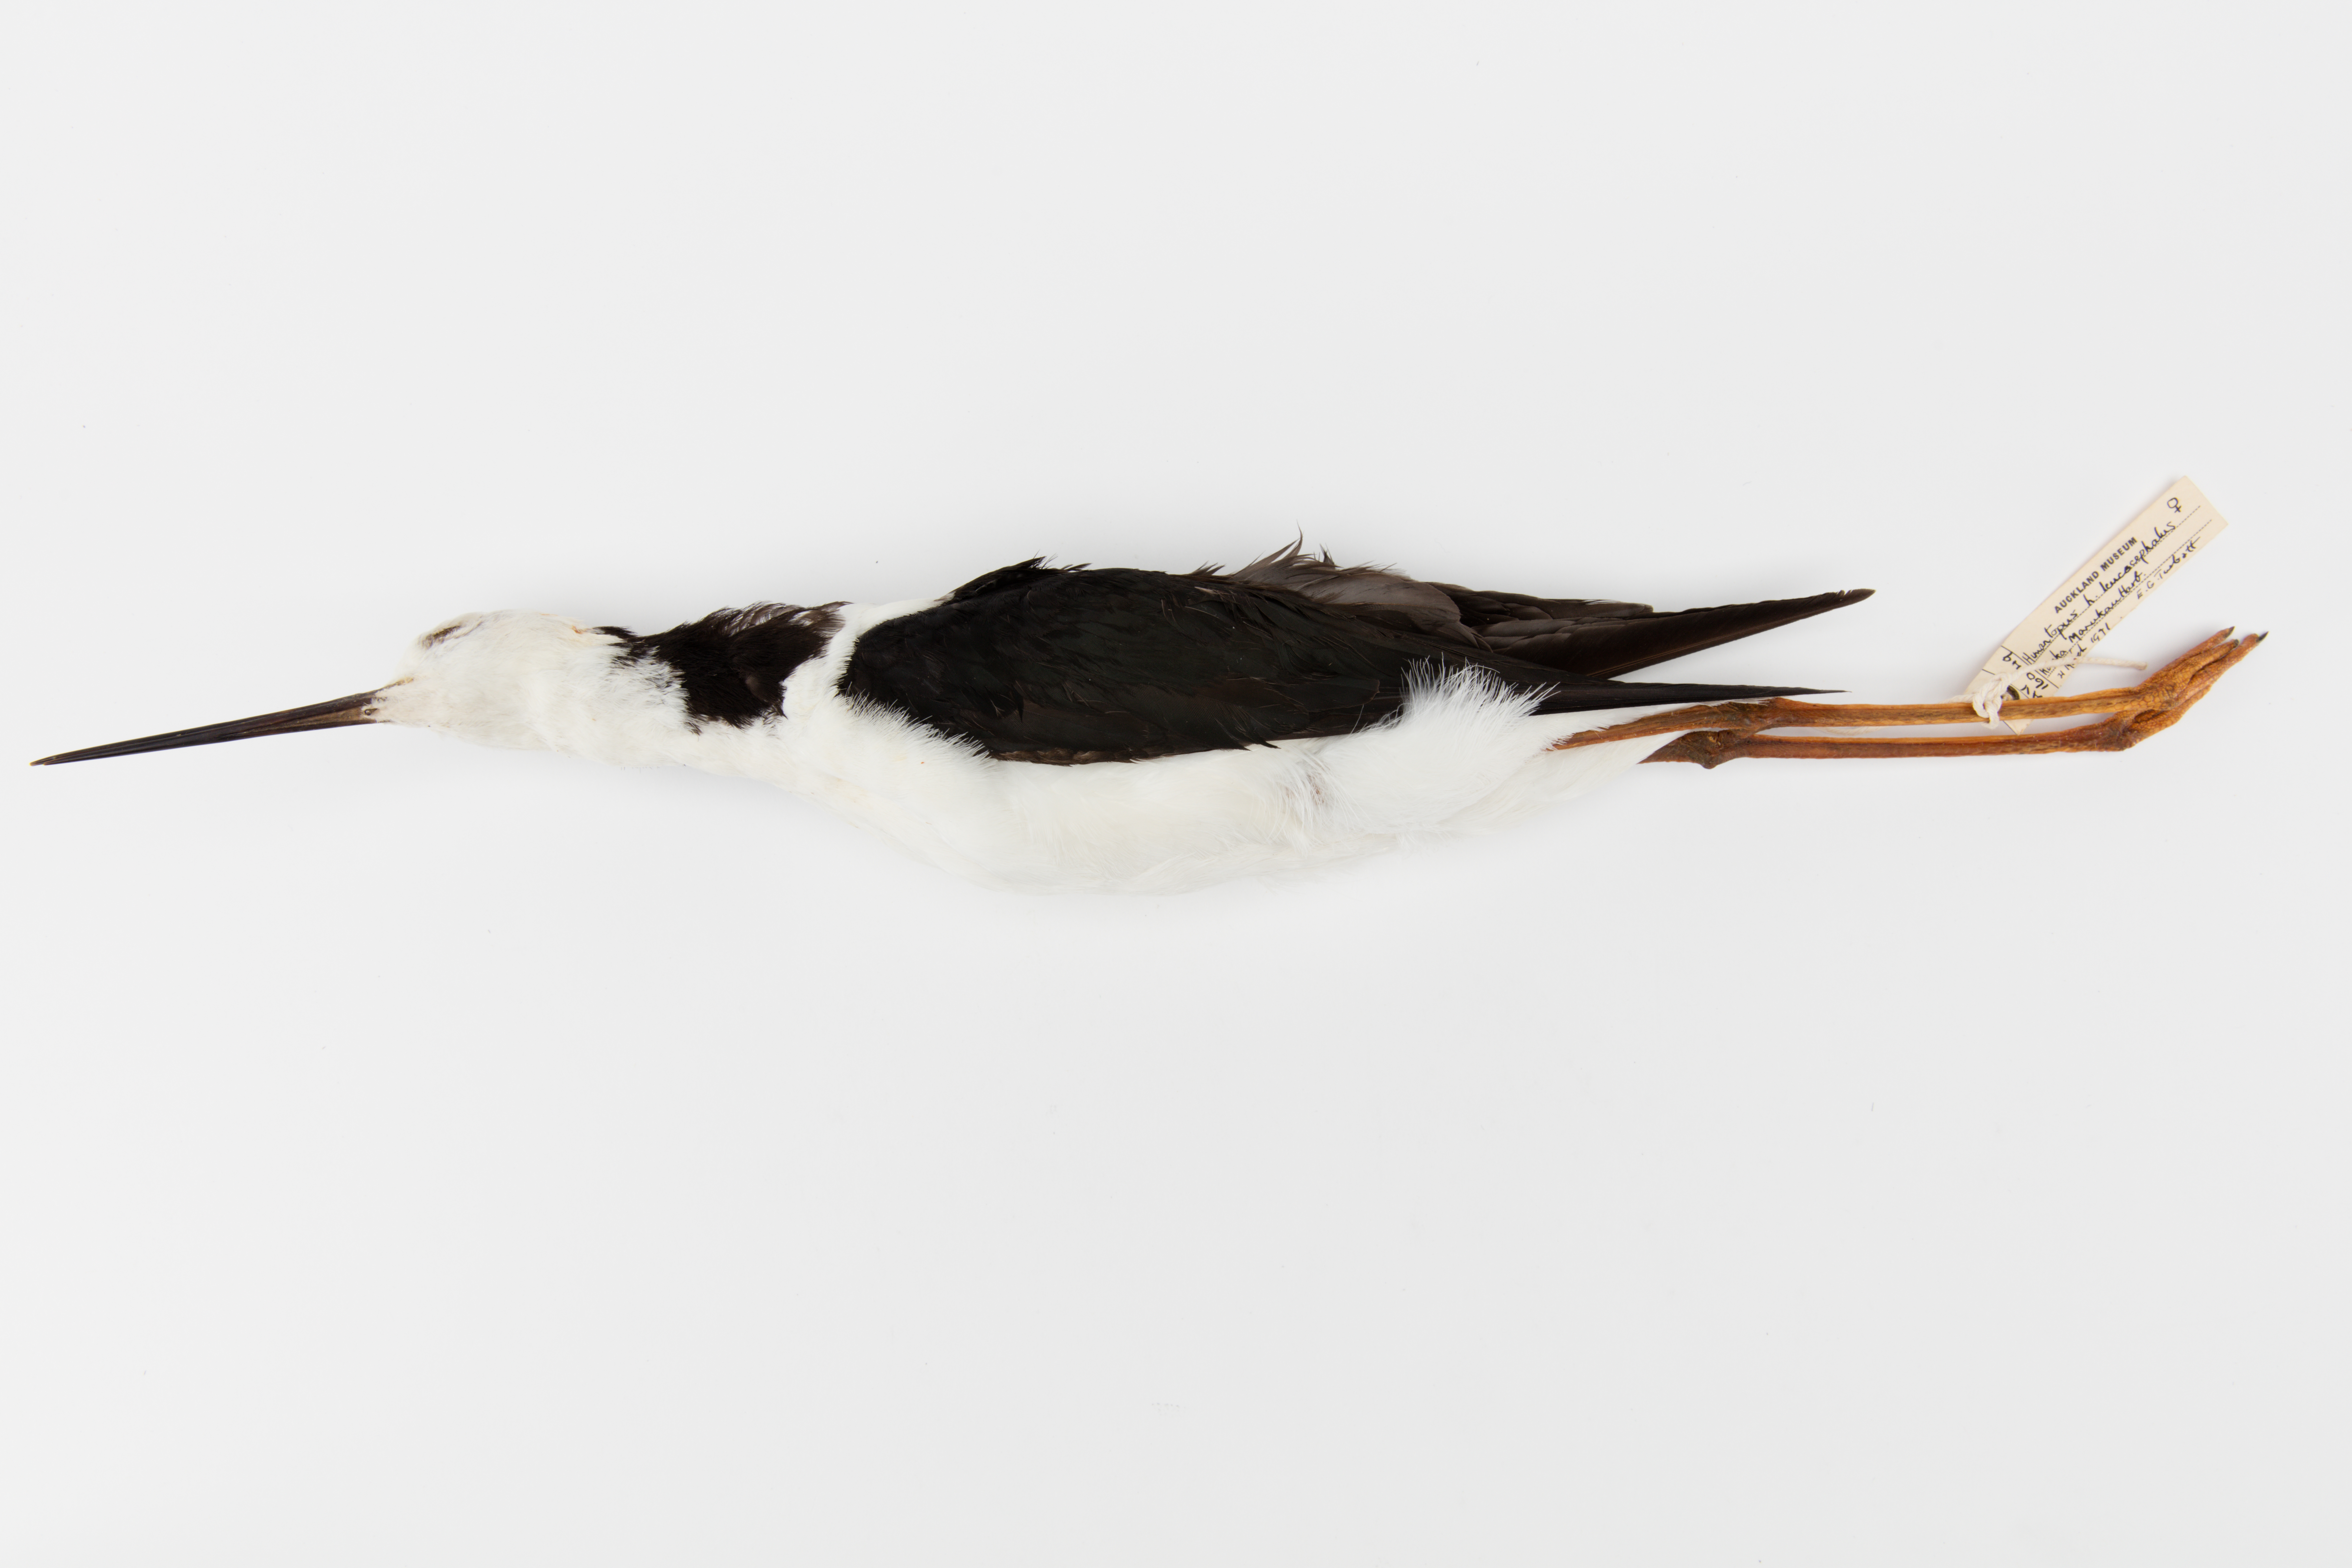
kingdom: Animalia
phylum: Chordata
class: Aves
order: Charadriiformes
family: Recurvirostridae
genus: Himantopus
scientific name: Himantopus himantopus
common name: Black-winged stilt
